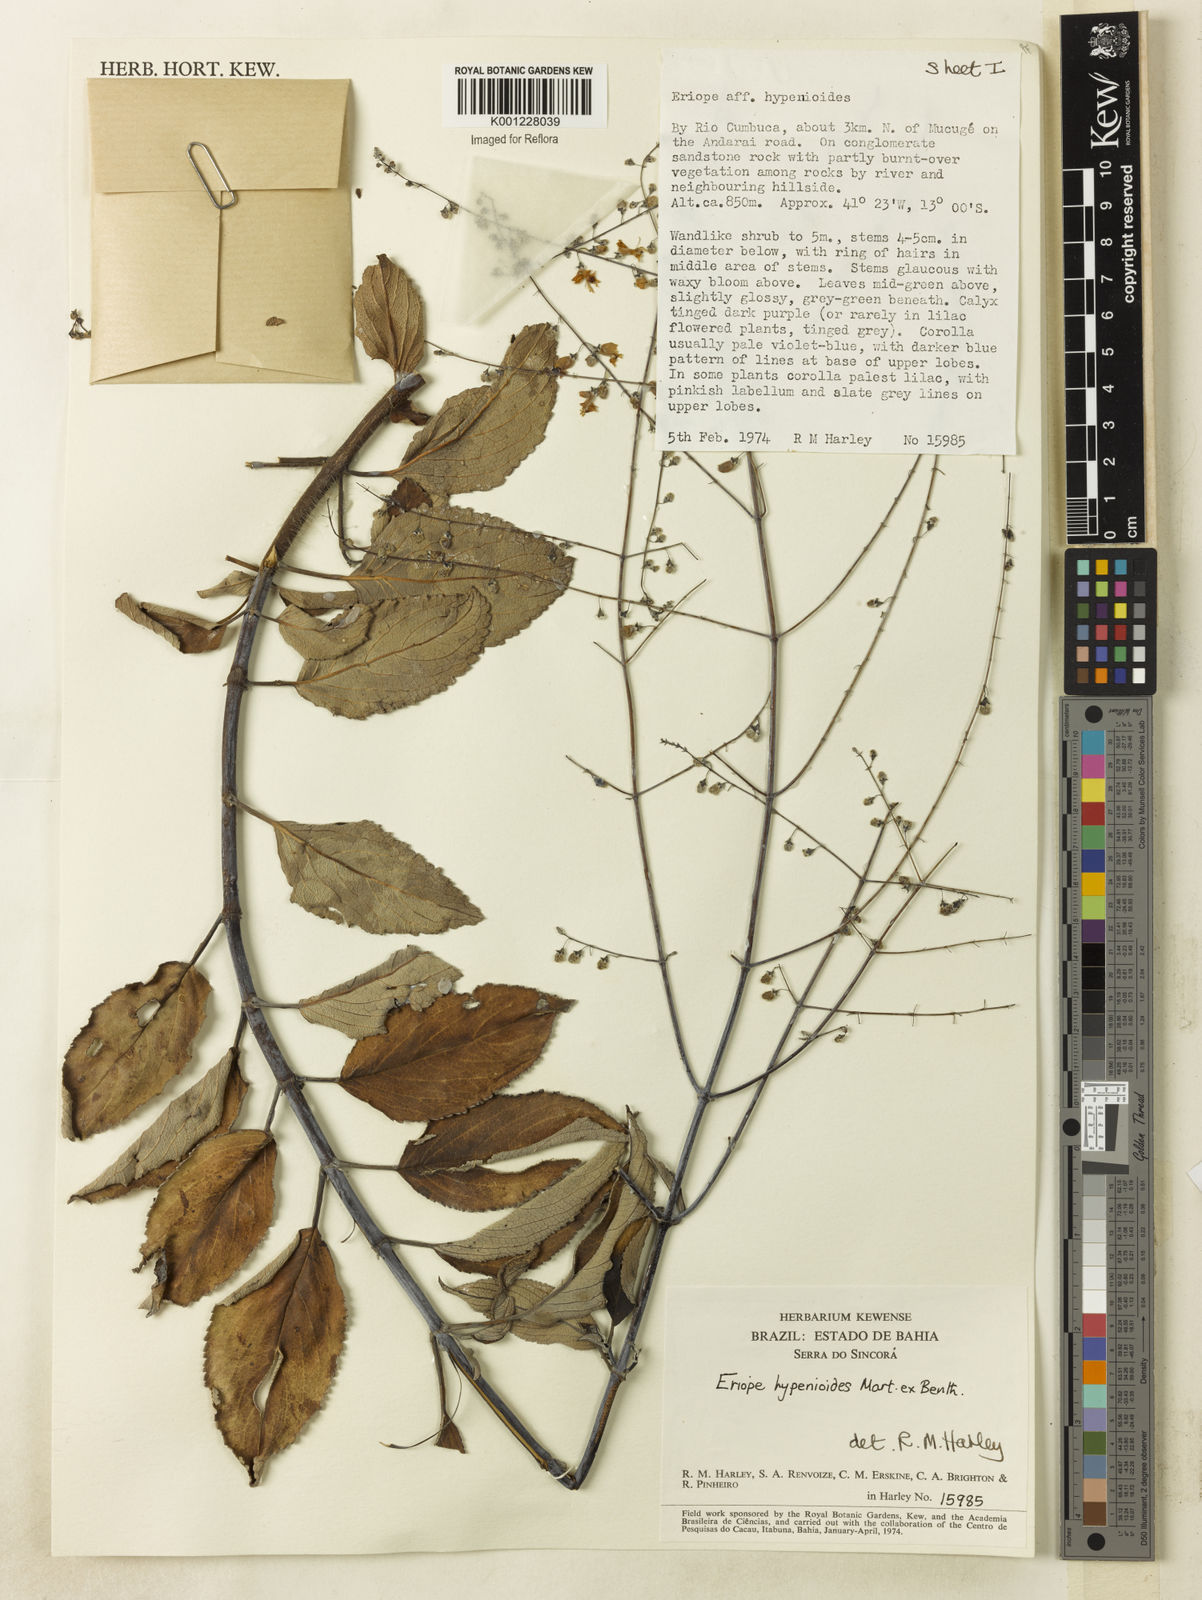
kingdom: Plantae
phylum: Tracheophyta
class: Magnoliopsida
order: Lamiales
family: Lamiaceae
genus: Eriope
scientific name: Eriope hypenioides
